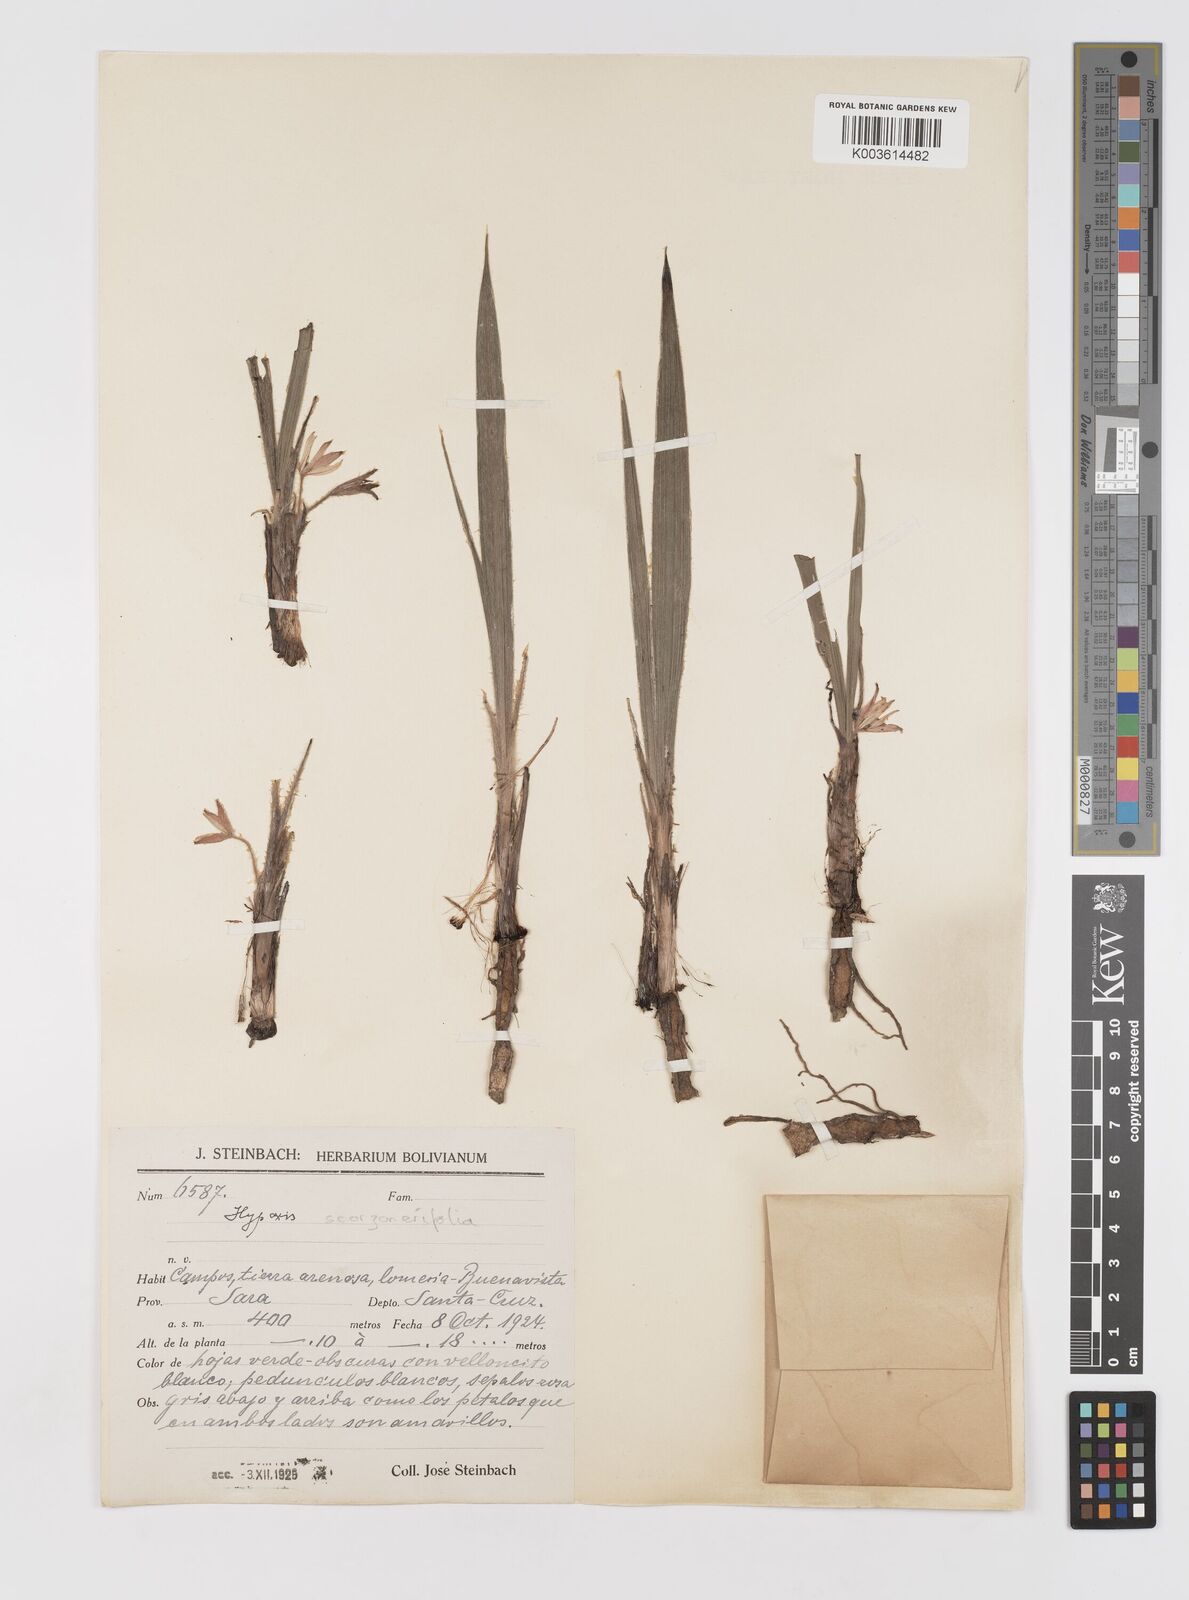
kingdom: Plantae
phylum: Tracheophyta
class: Liliopsida
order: Asparagales
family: Hypoxidaceae
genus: Curculigo
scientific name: Curculigo scorzonerifolia
